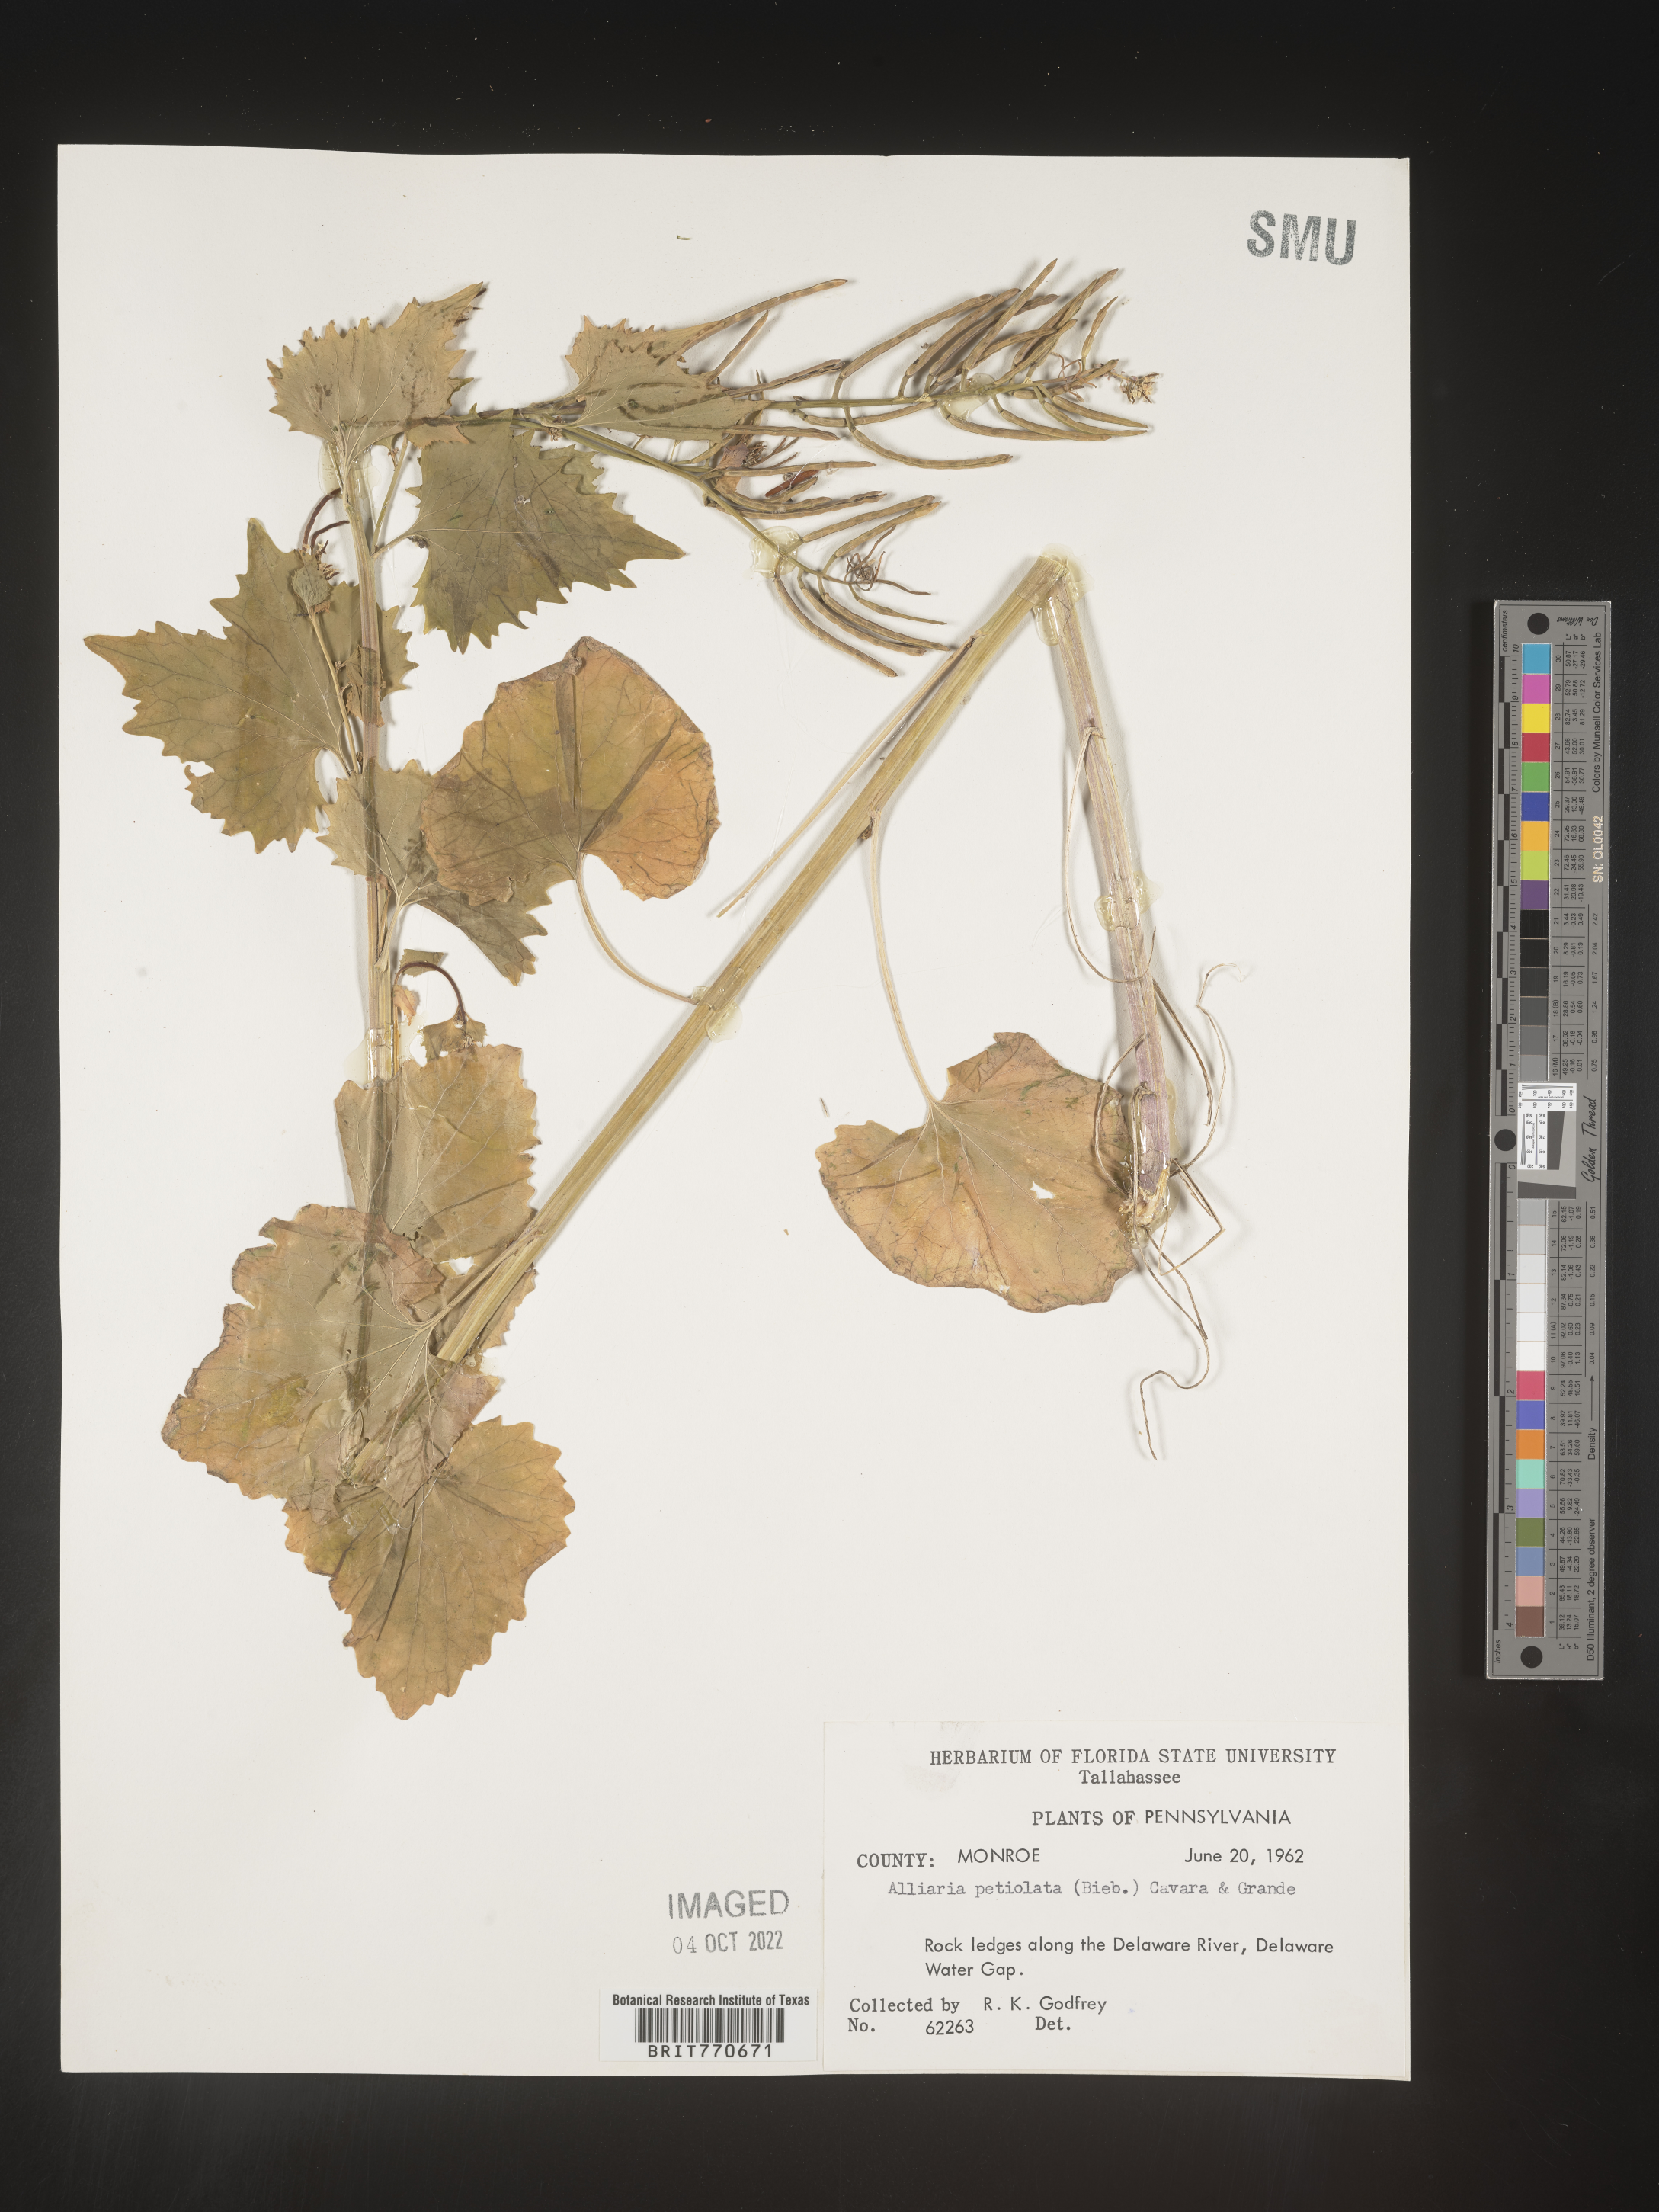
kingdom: Plantae
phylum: Tracheophyta
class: Magnoliopsida
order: Brassicales
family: Brassicaceae
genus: Alliaria
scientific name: Alliaria
